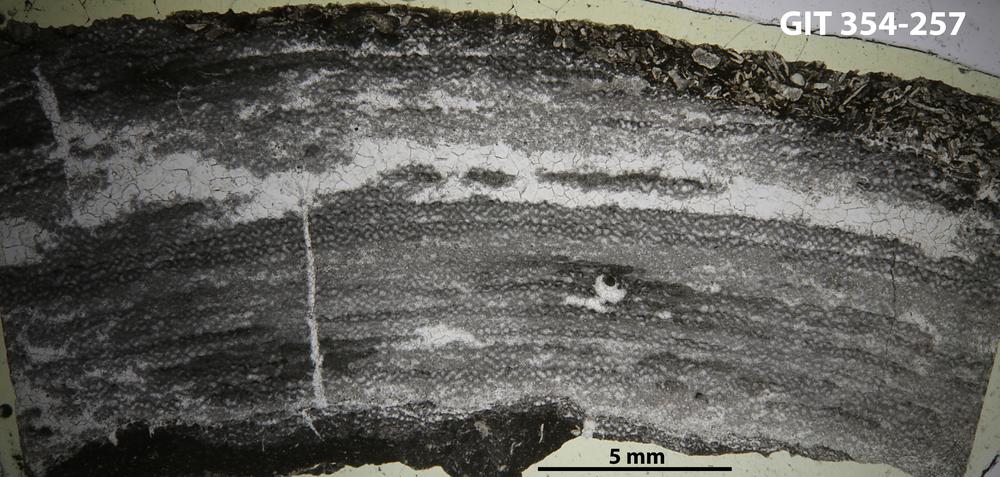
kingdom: Animalia
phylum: Porifera
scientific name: Porifera
